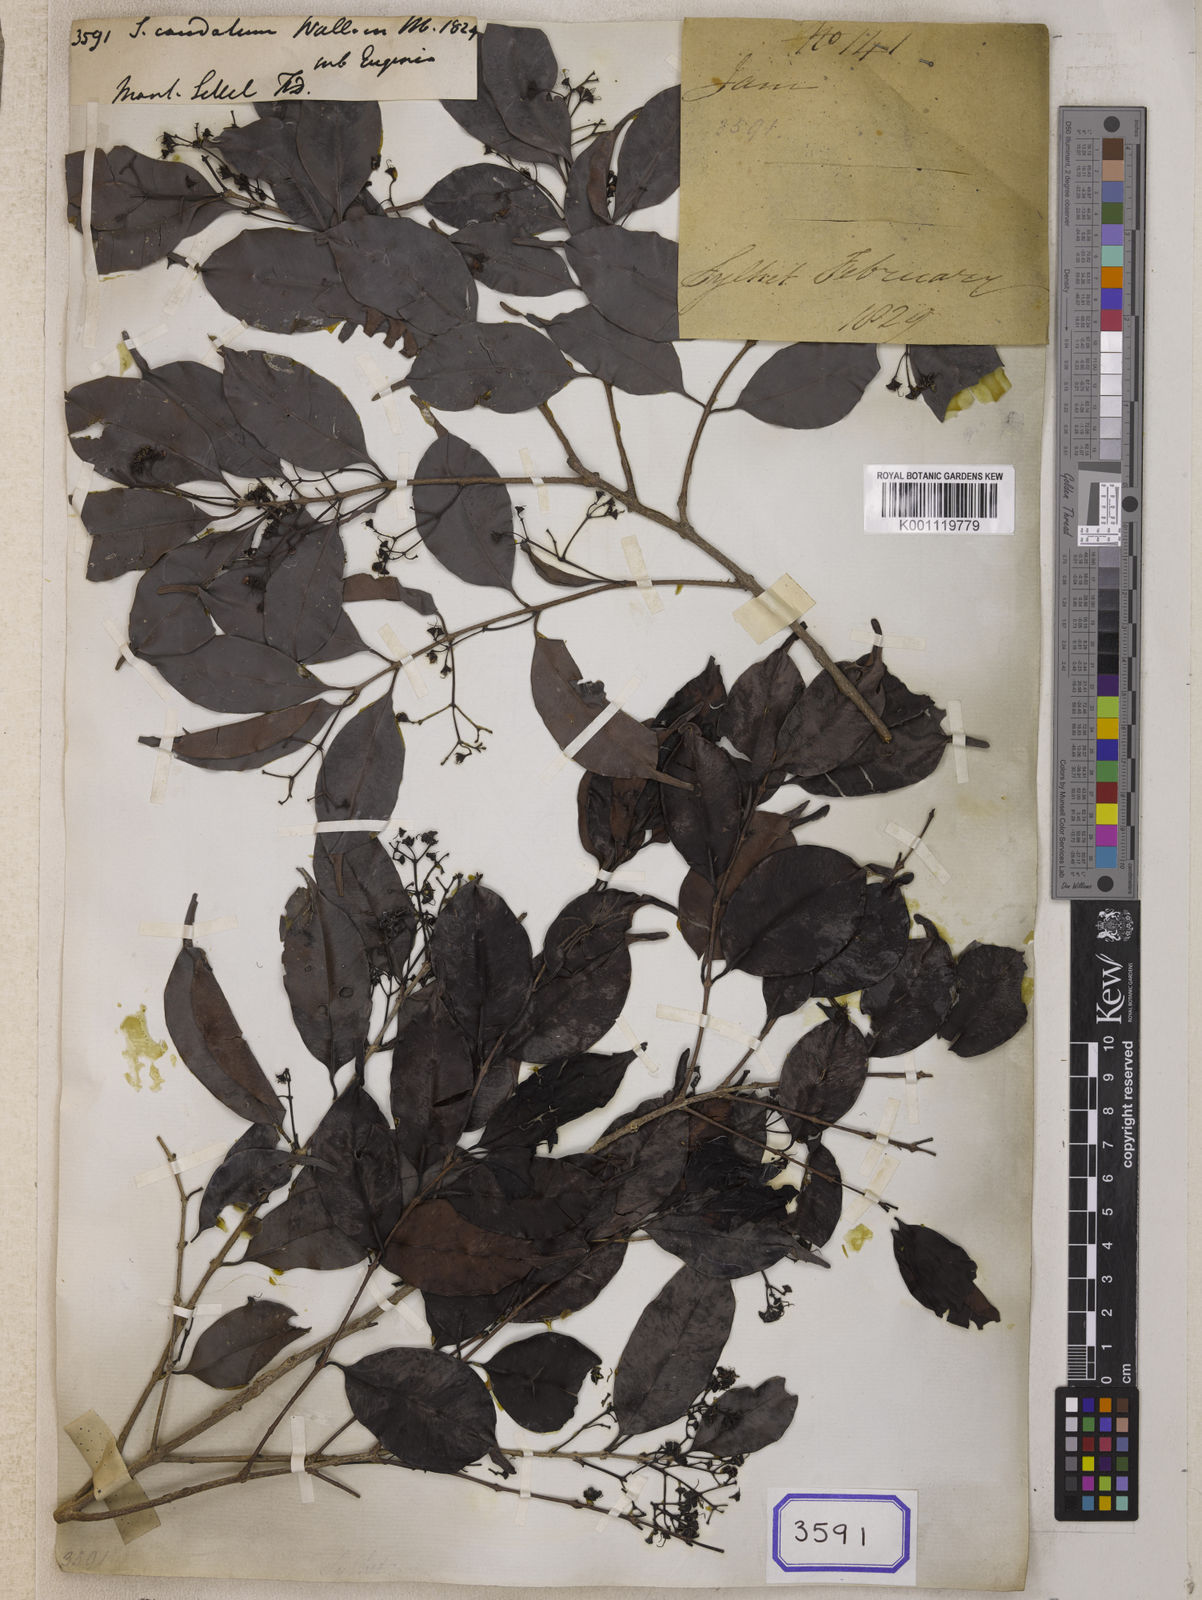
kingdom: Plantae
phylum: Tracheophyta
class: Magnoliopsida
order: Myrtales
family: Myrtaceae
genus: Syzygium
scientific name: Syzygium syzygioides
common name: Myrtle
